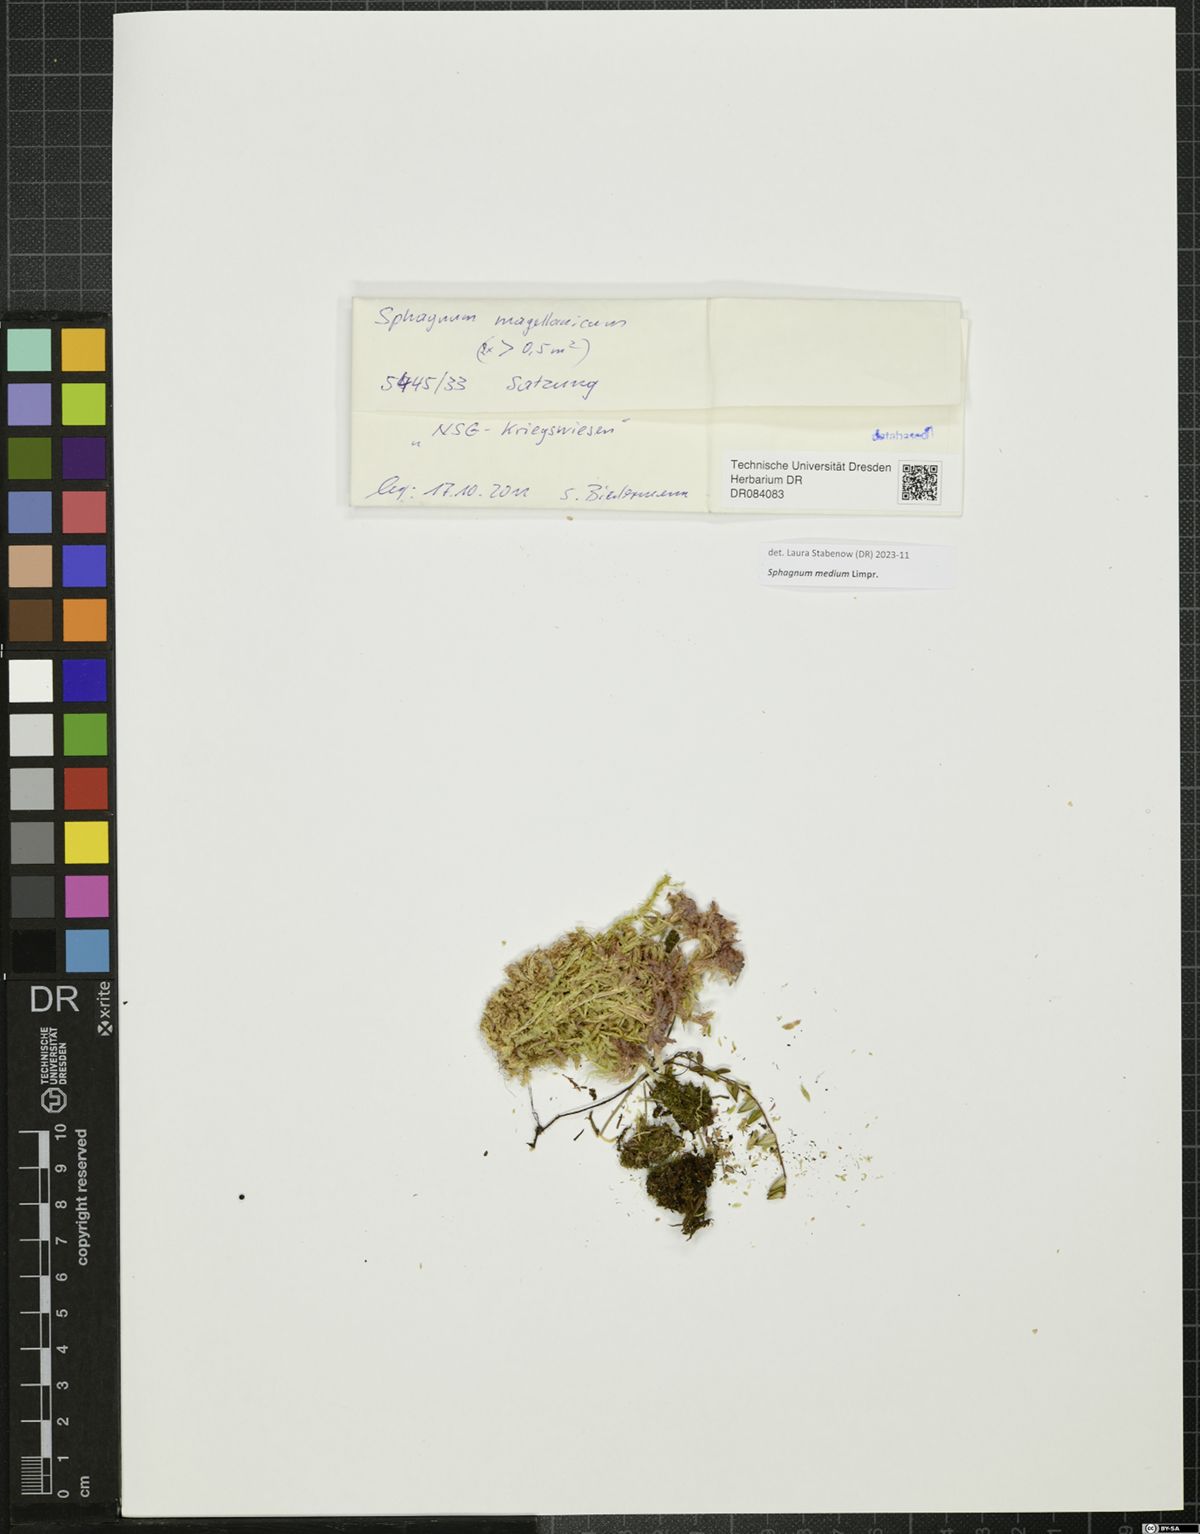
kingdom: Plantae
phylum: Bryophyta
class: Sphagnopsida
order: Sphagnales
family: Sphagnaceae
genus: Sphagnum
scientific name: Sphagnum medium
